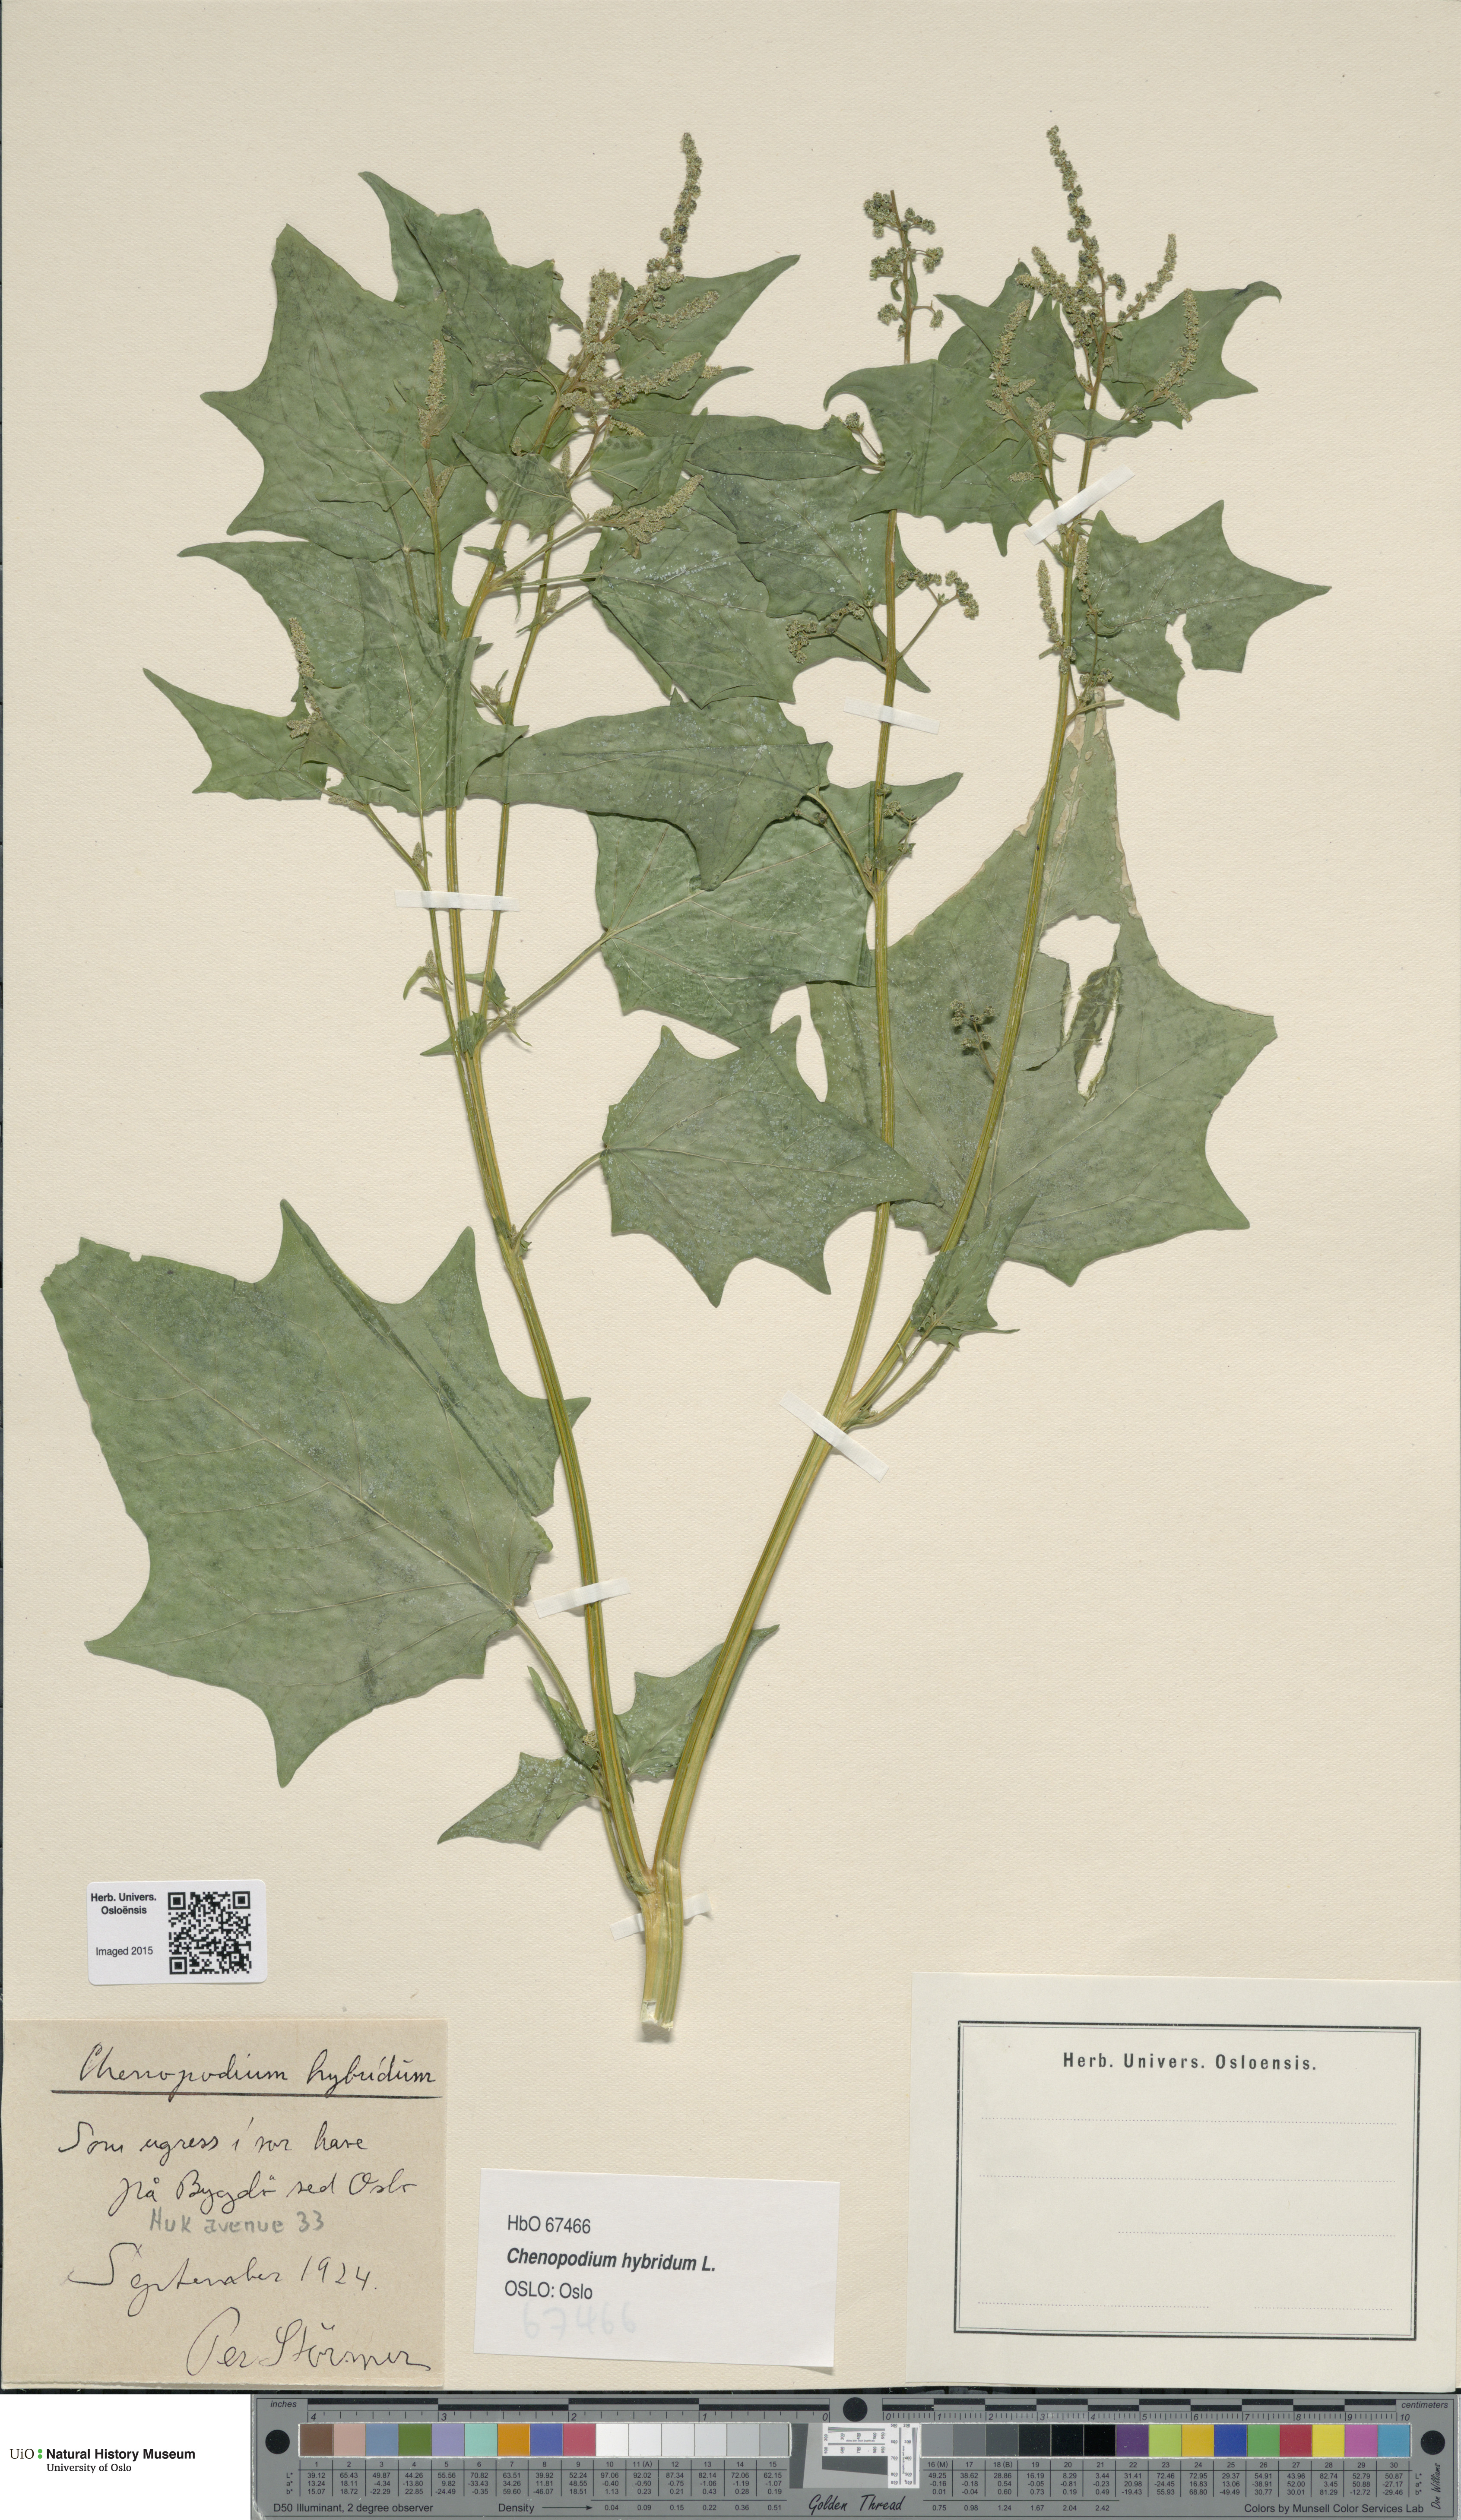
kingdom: Plantae
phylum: Tracheophyta
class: Magnoliopsida
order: Caryophyllales
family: Amaranthaceae
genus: Chenopodiastrum
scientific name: Chenopodiastrum hybridum
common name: Mapleleaf goosefoot
